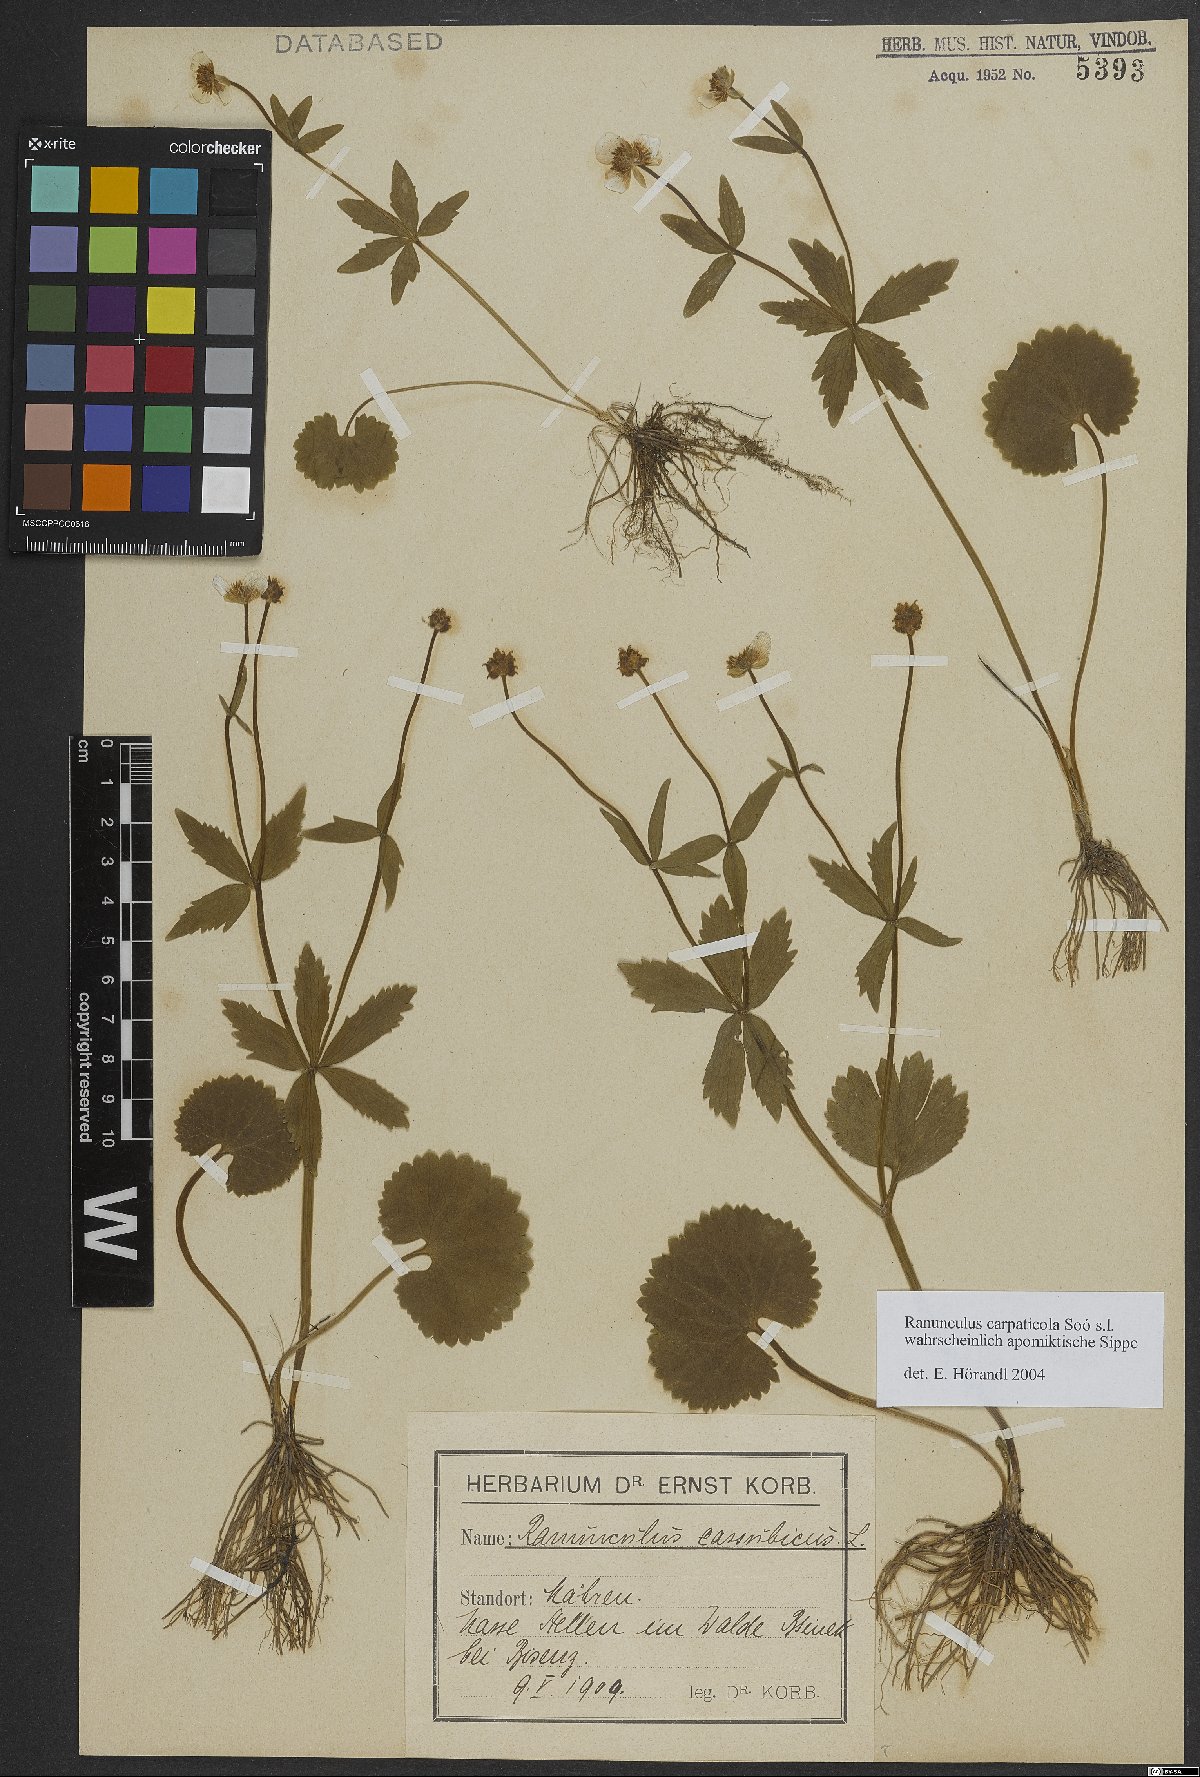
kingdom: Plantae
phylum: Tracheophyta
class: Magnoliopsida
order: Ranunculales
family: Ranunculaceae
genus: Ranunculus
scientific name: Ranunculus cassubicifolius
